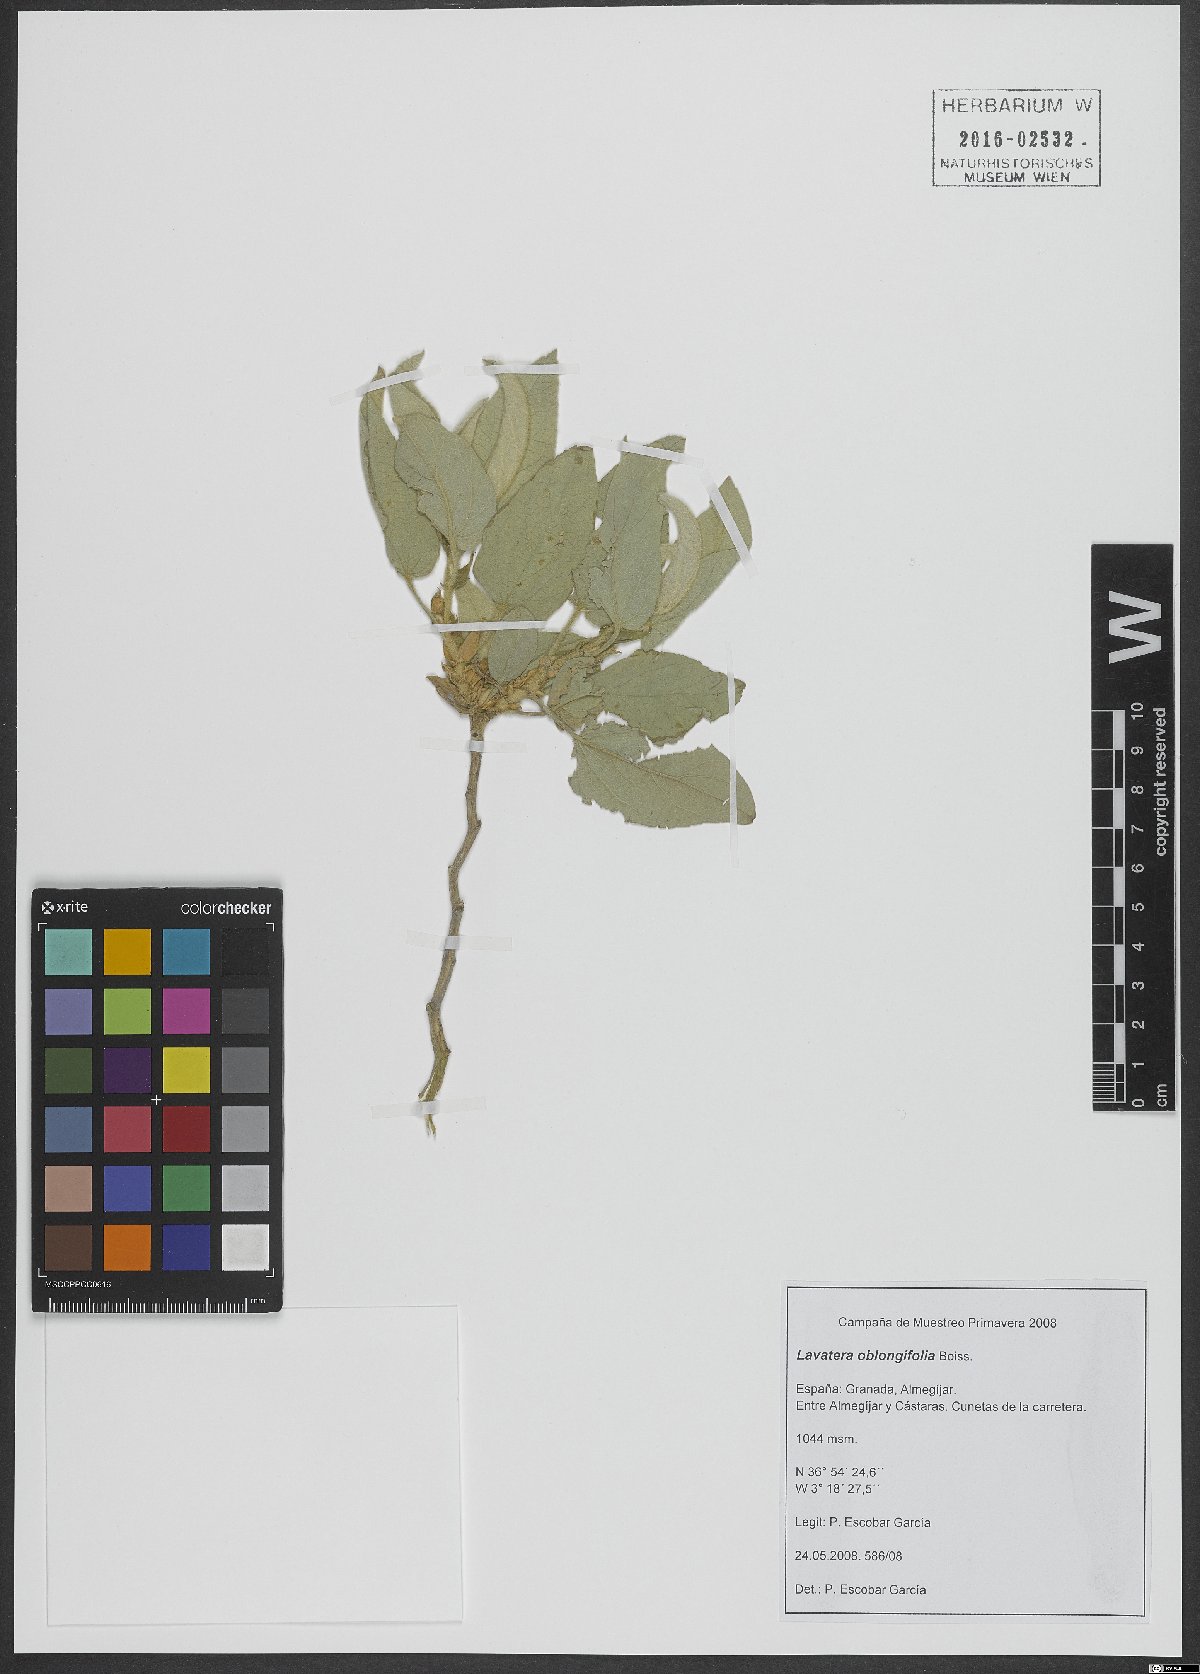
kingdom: Plantae
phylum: Tracheophyta
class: Magnoliopsida
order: Malvales
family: Malvaceae
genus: Malva
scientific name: Malva oblongifolia
